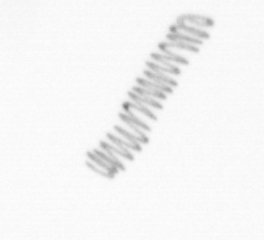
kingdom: Chromista
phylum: Ochrophyta
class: Bacillariophyceae
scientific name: Bacillariophyceae
